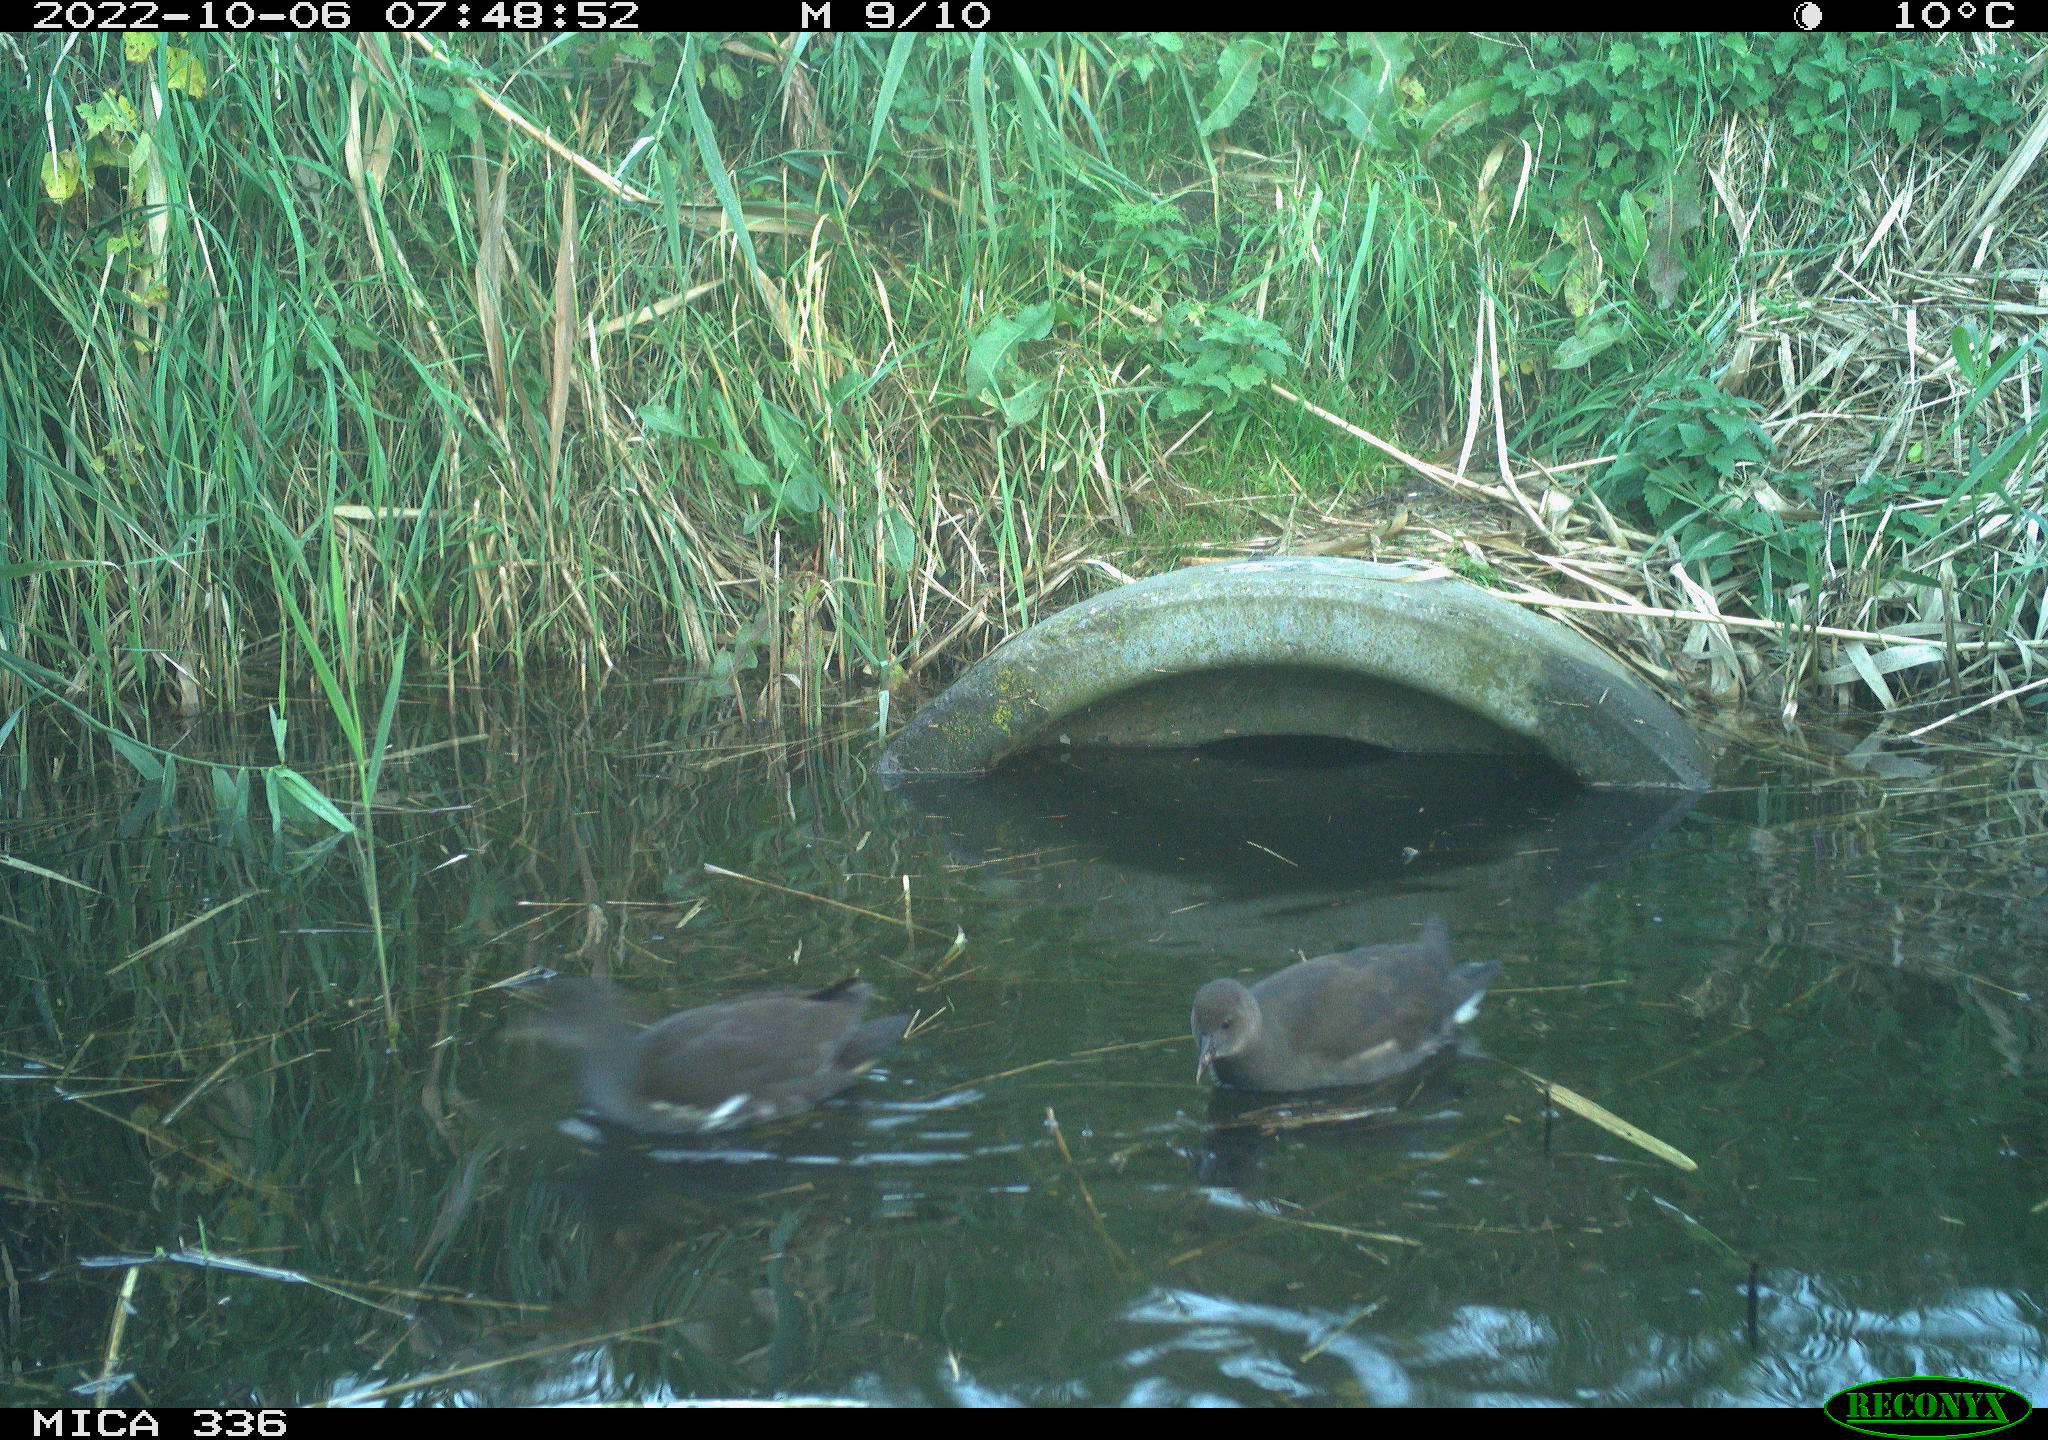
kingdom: Animalia
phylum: Chordata
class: Aves
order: Gruiformes
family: Rallidae
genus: Gallinula
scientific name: Gallinula chloropus
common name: Common moorhen
